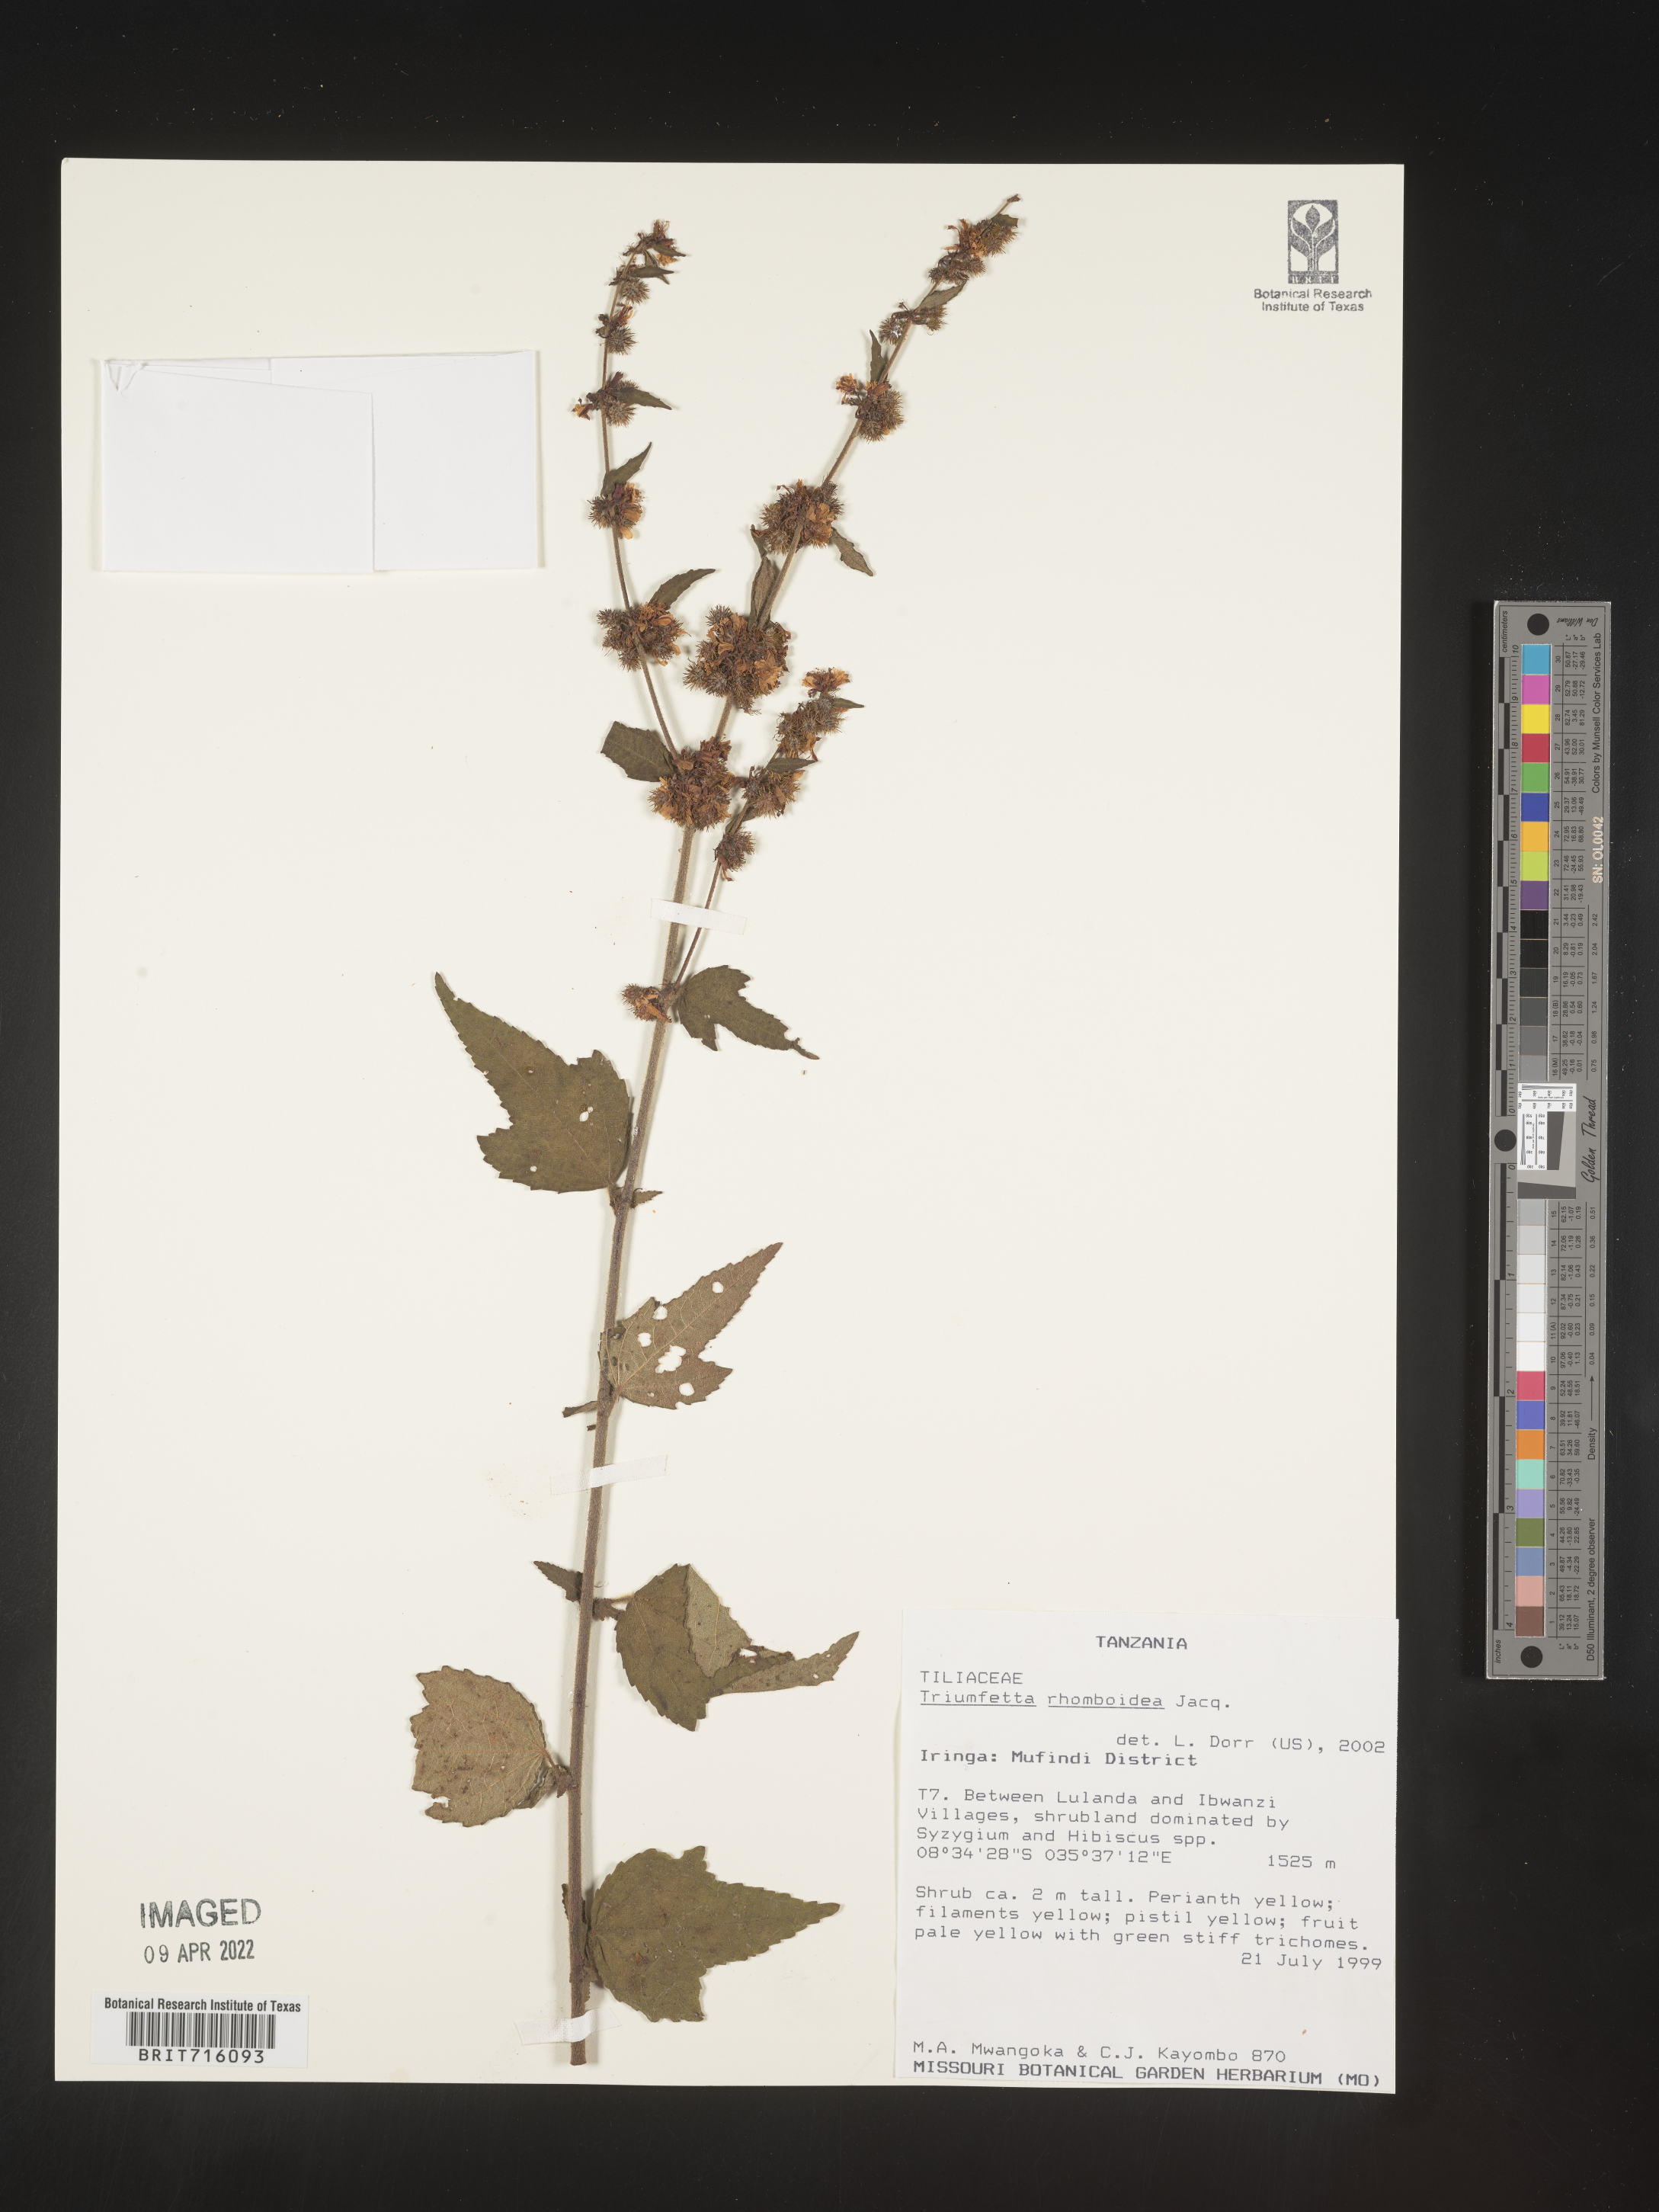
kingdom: Plantae
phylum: Tracheophyta
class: Magnoliopsida
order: Malvales
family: Malvaceae
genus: Triumfetta
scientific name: Triumfetta rhomboidea
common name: Diamond burbark
